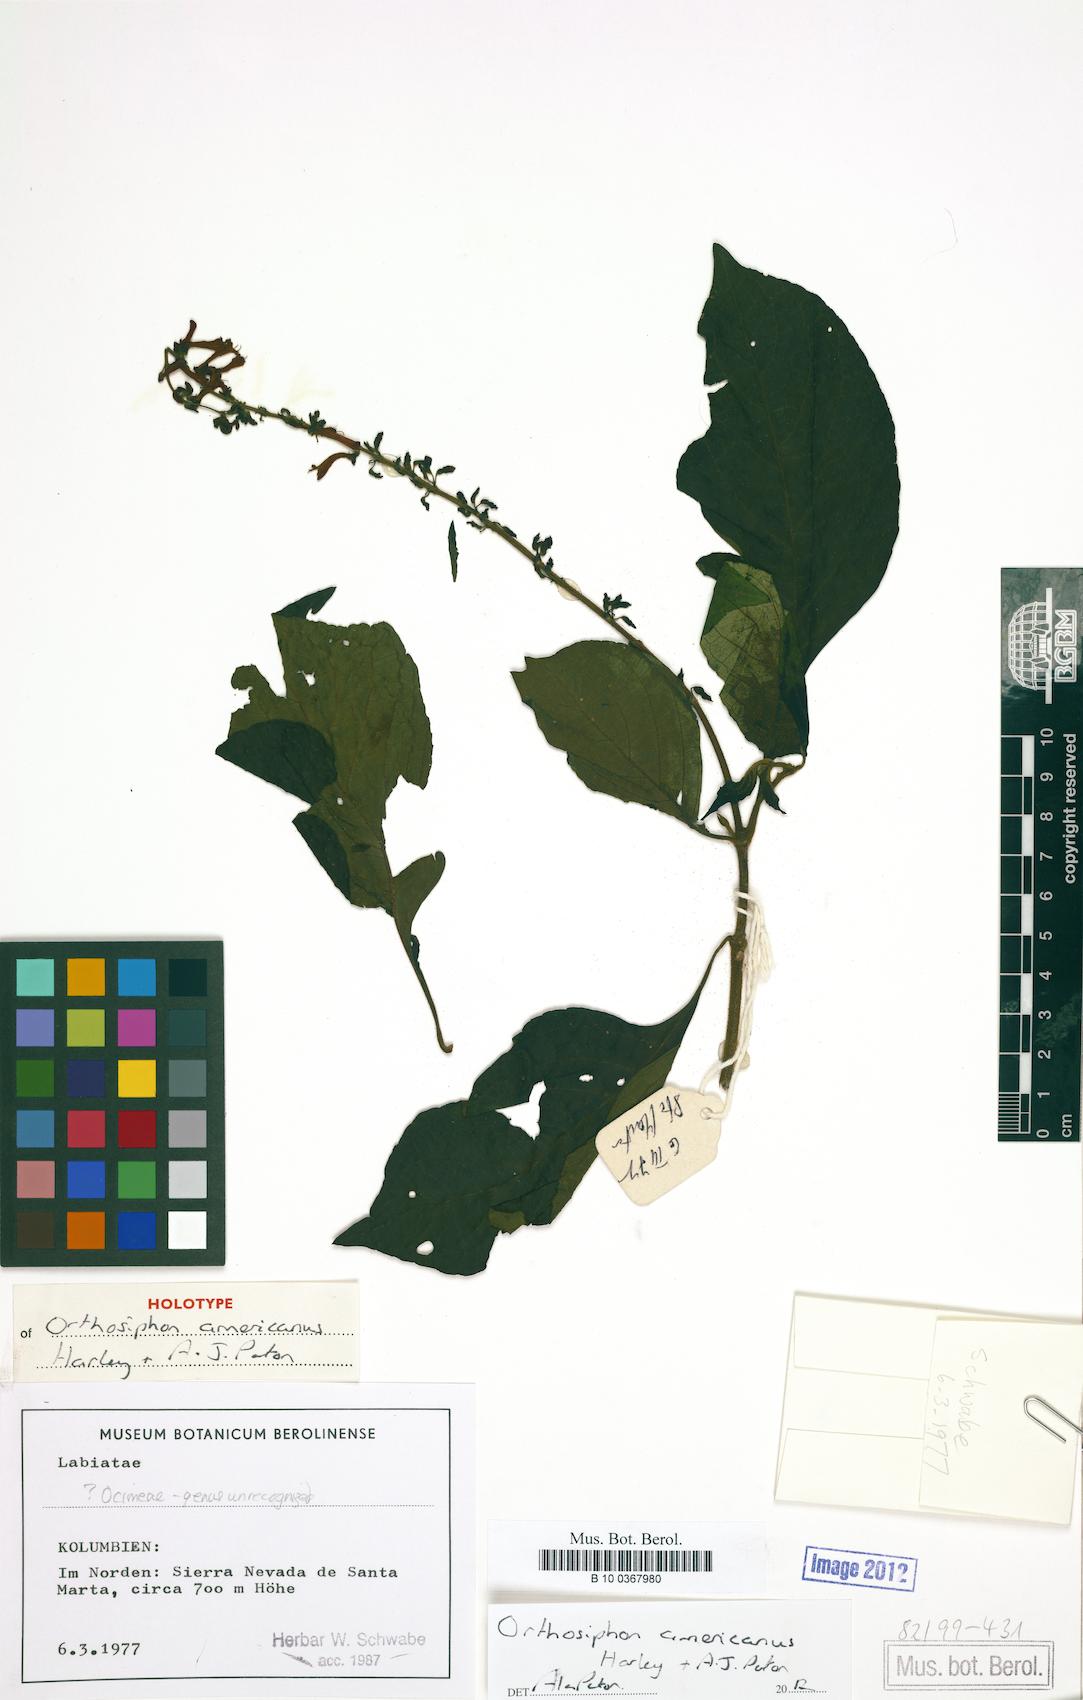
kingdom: Plantae
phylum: Tracheophyta
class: Magnoliopsida
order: Lamiales
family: Lamiaceae
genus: Orthosiphon
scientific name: Orthosiphon americanus
